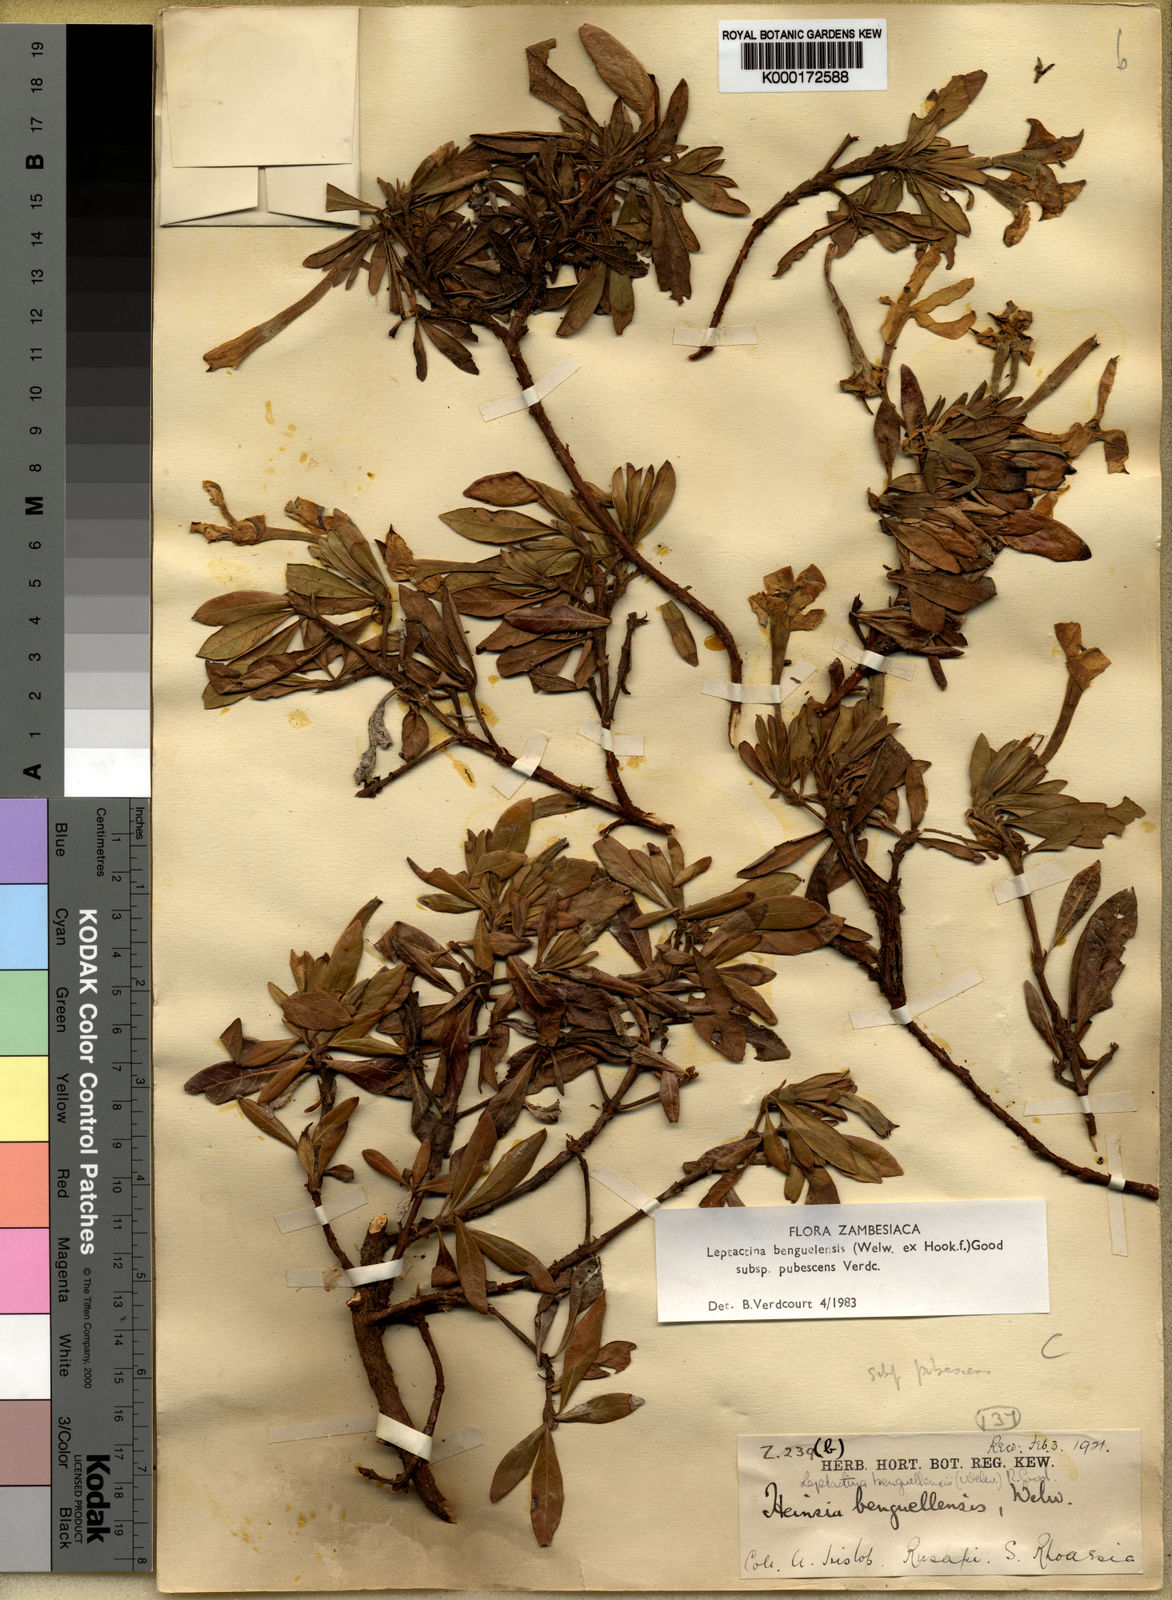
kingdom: Plantae
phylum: Tracheophyta
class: Magnoliopsida
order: Gentianales
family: Rubiaceae
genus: Leptactina
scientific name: Leptactina benguelensis
